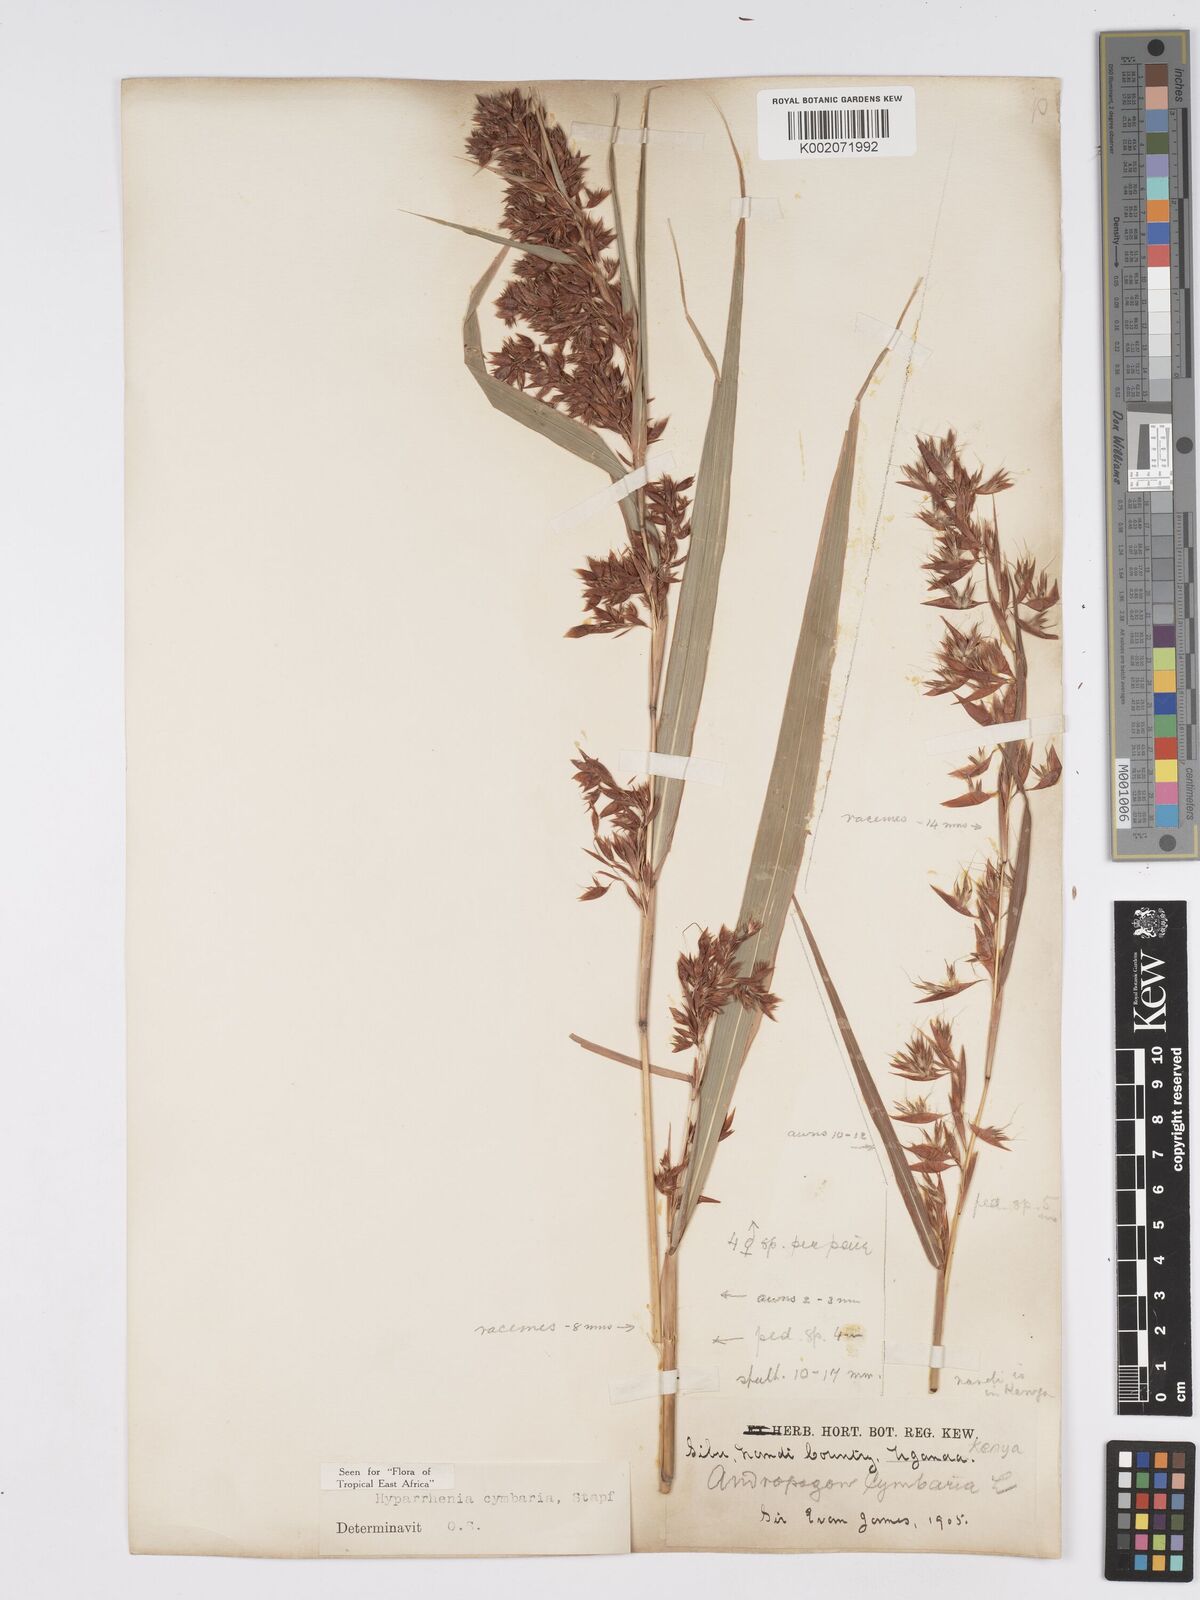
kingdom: Plantae
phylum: Tracheophyta
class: Liliopsida
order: Poales
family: Poaceae
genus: Hyparrhenia
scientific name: Hyparrhenia cymbaria
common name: Boat thatching grass
